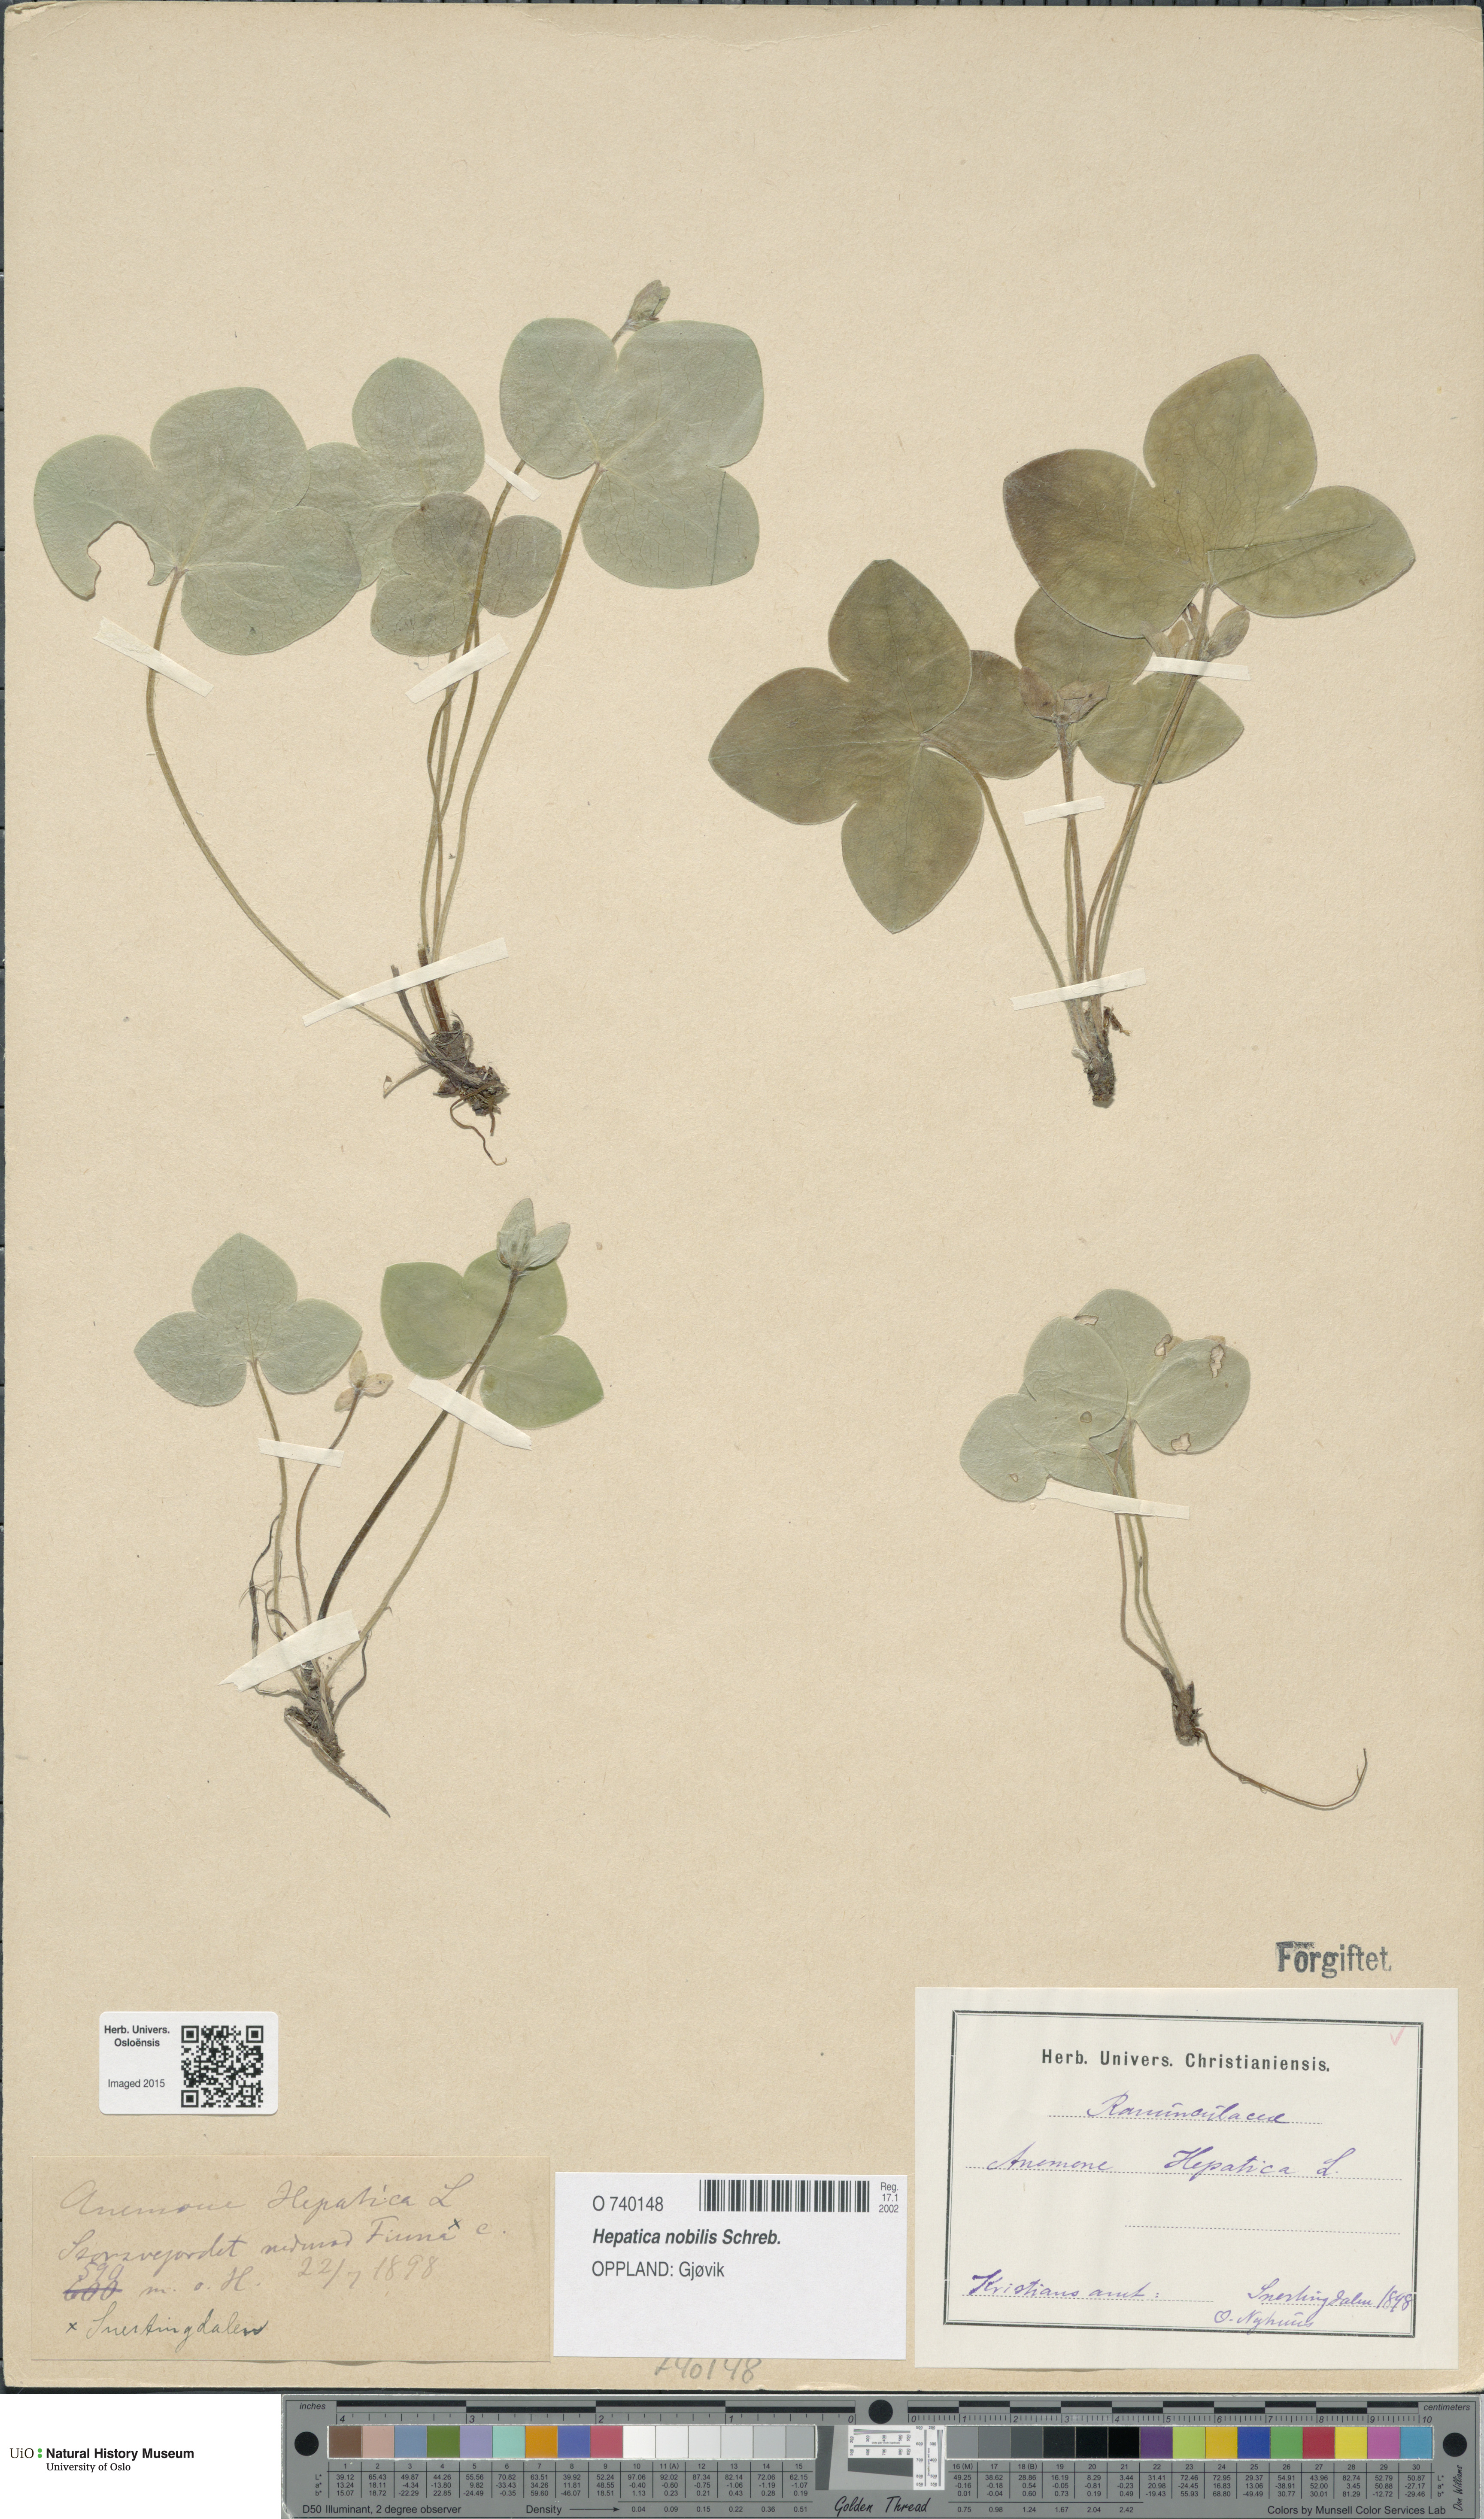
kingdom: Plantae
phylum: Tracheophyta
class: Magnoliopsida
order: Ranunculales
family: Ranunculaceae
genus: Hepatica
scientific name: Hepatica nobilis
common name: Liverleaf
